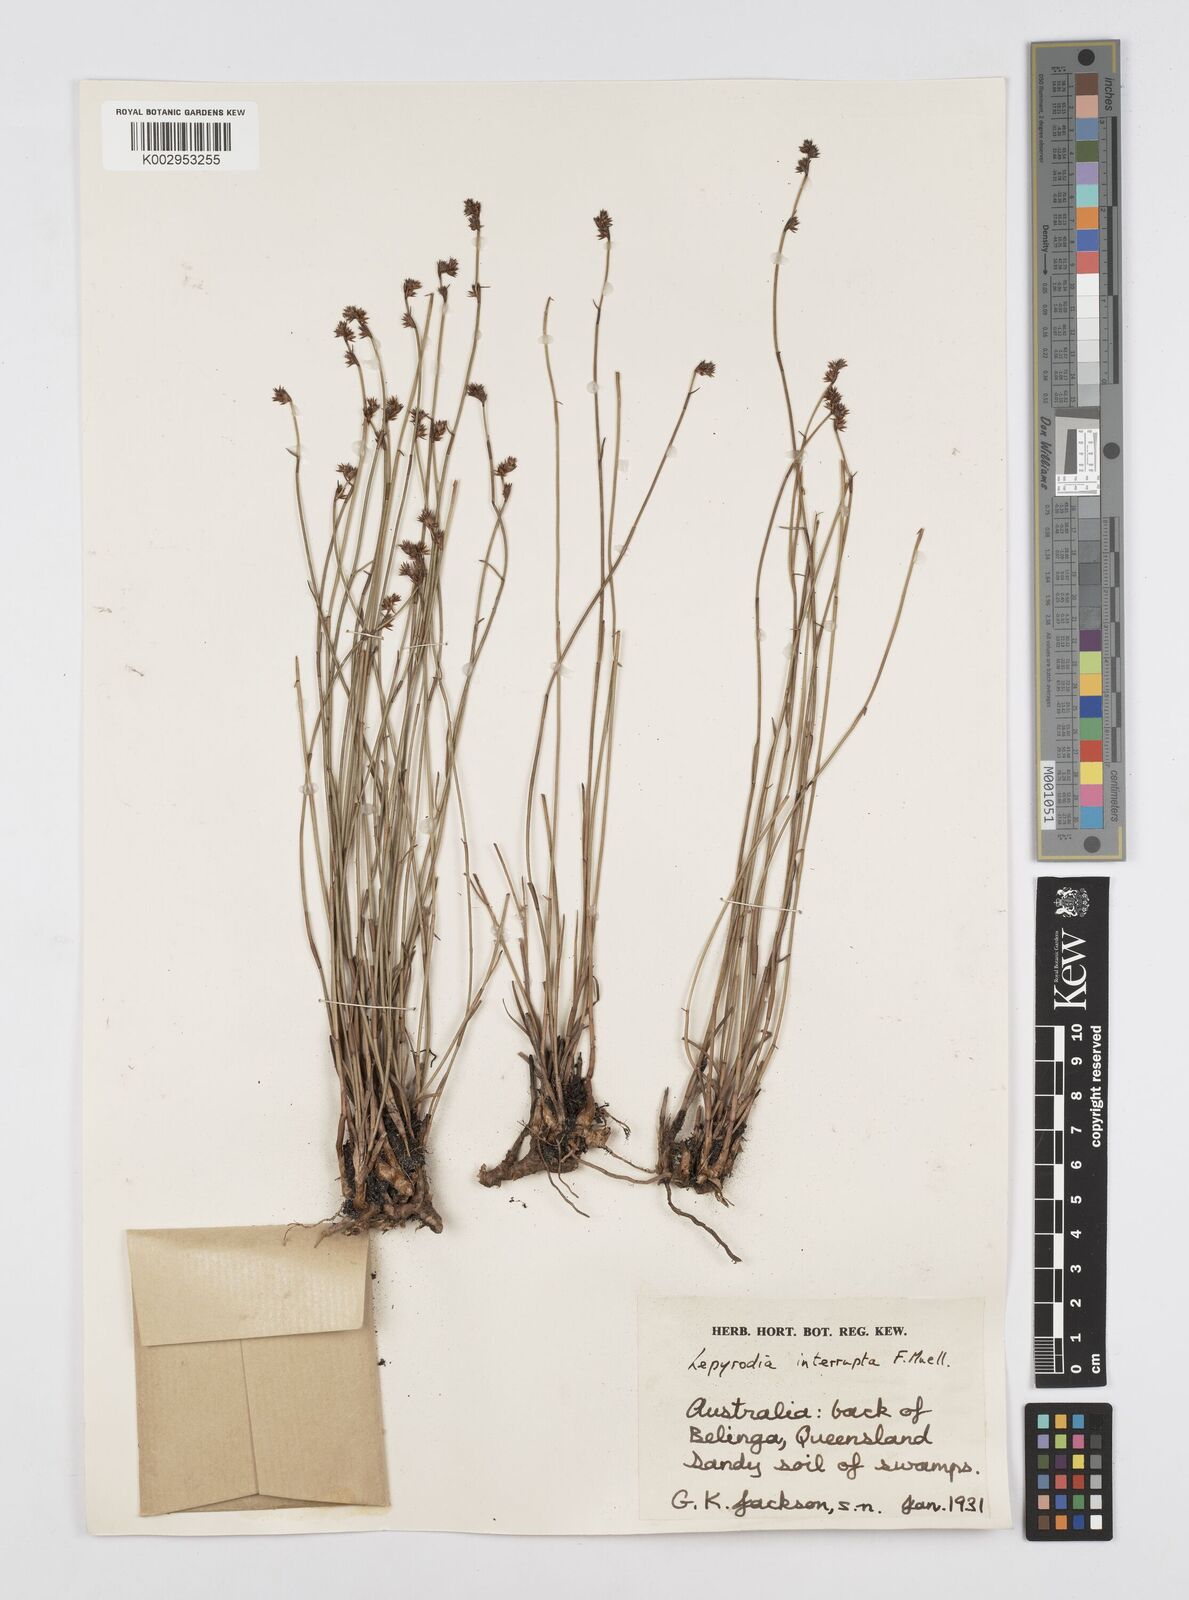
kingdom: Plantae
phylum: Tracheophyta
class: Liliopsida
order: Poales
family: Restionaceae
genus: Sporadanthus
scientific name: Sporadanthus interruptus
